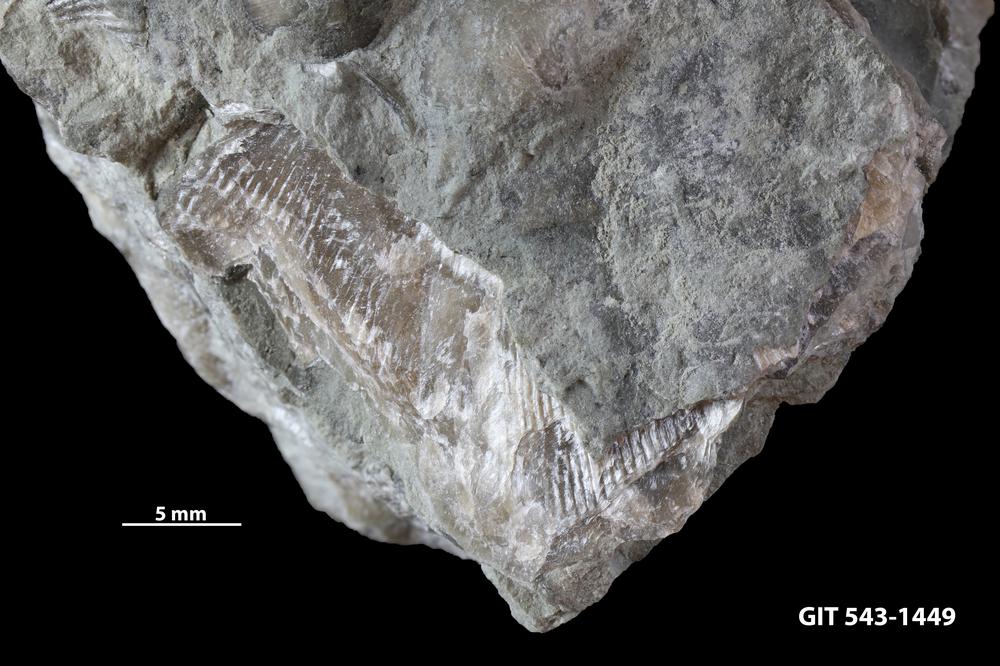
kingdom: Animalia
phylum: Brachiopoda
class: Rhynchonellata
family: Clitambonitidae
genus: Clitambonites
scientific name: Clitambonites
